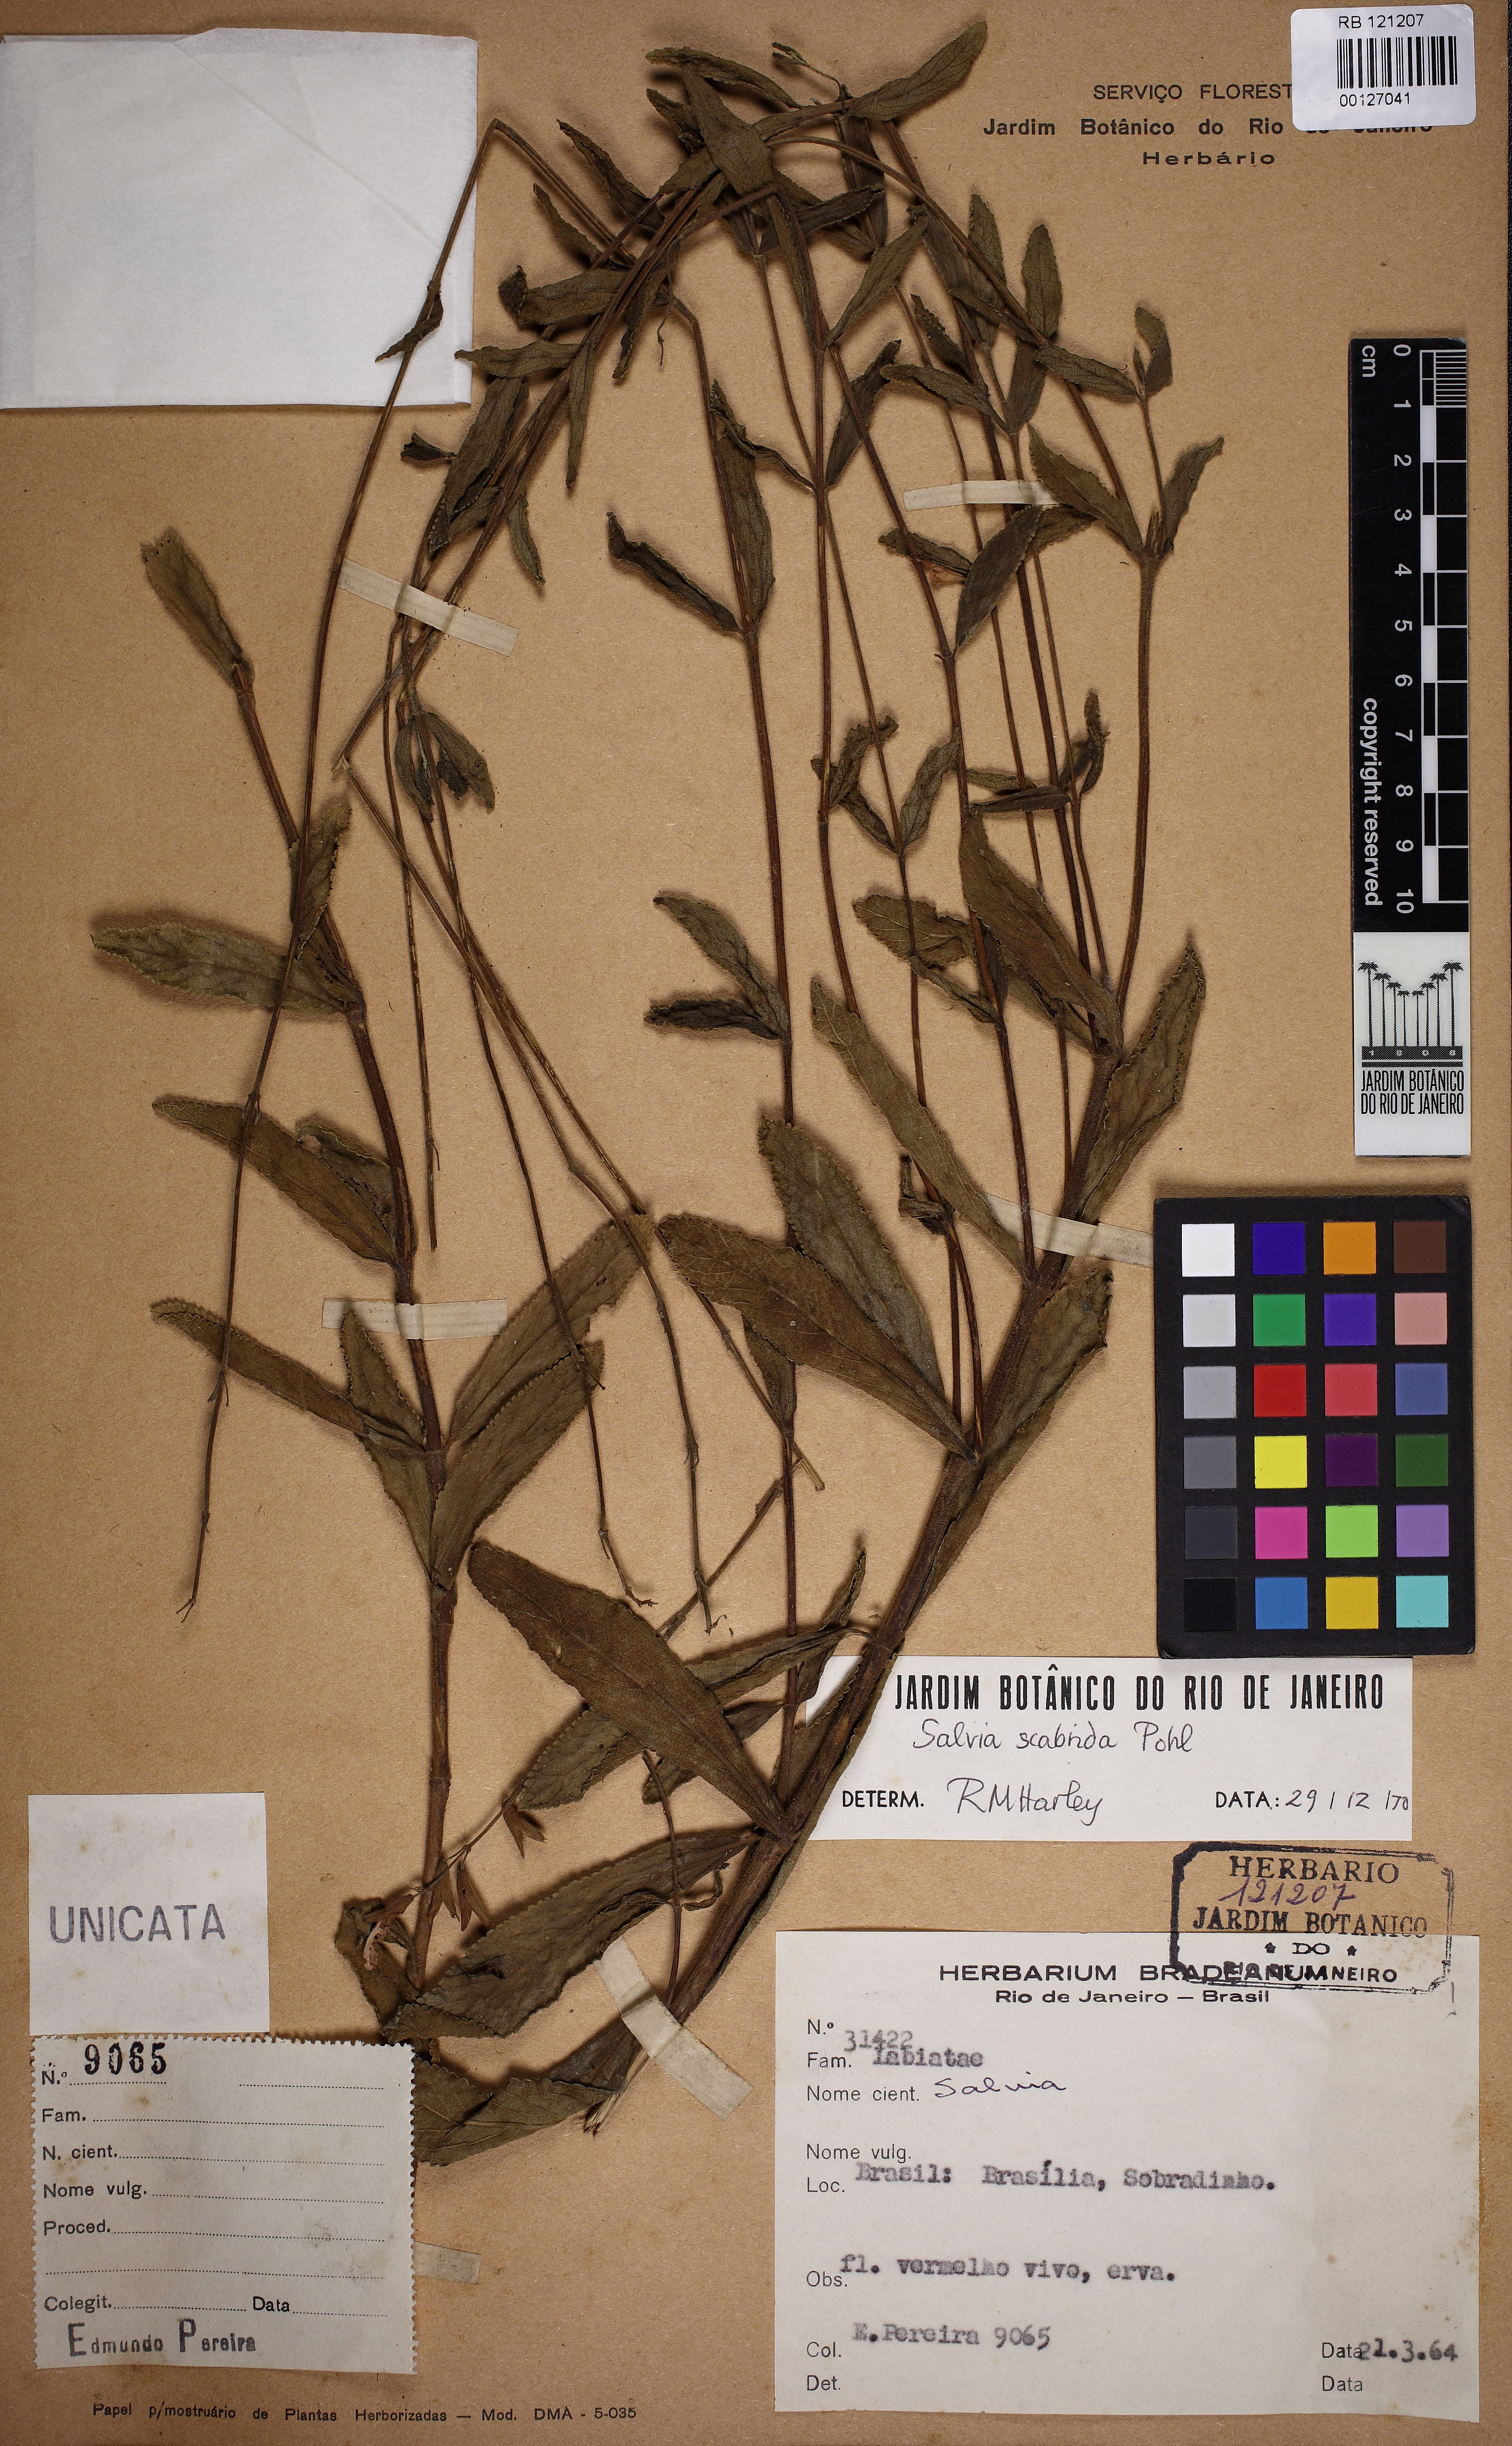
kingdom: Plantae
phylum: Tracheophyta
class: Magnoliopsida
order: Lamiales
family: Lamiaceae
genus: Salvia
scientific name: Salvia scabrida
